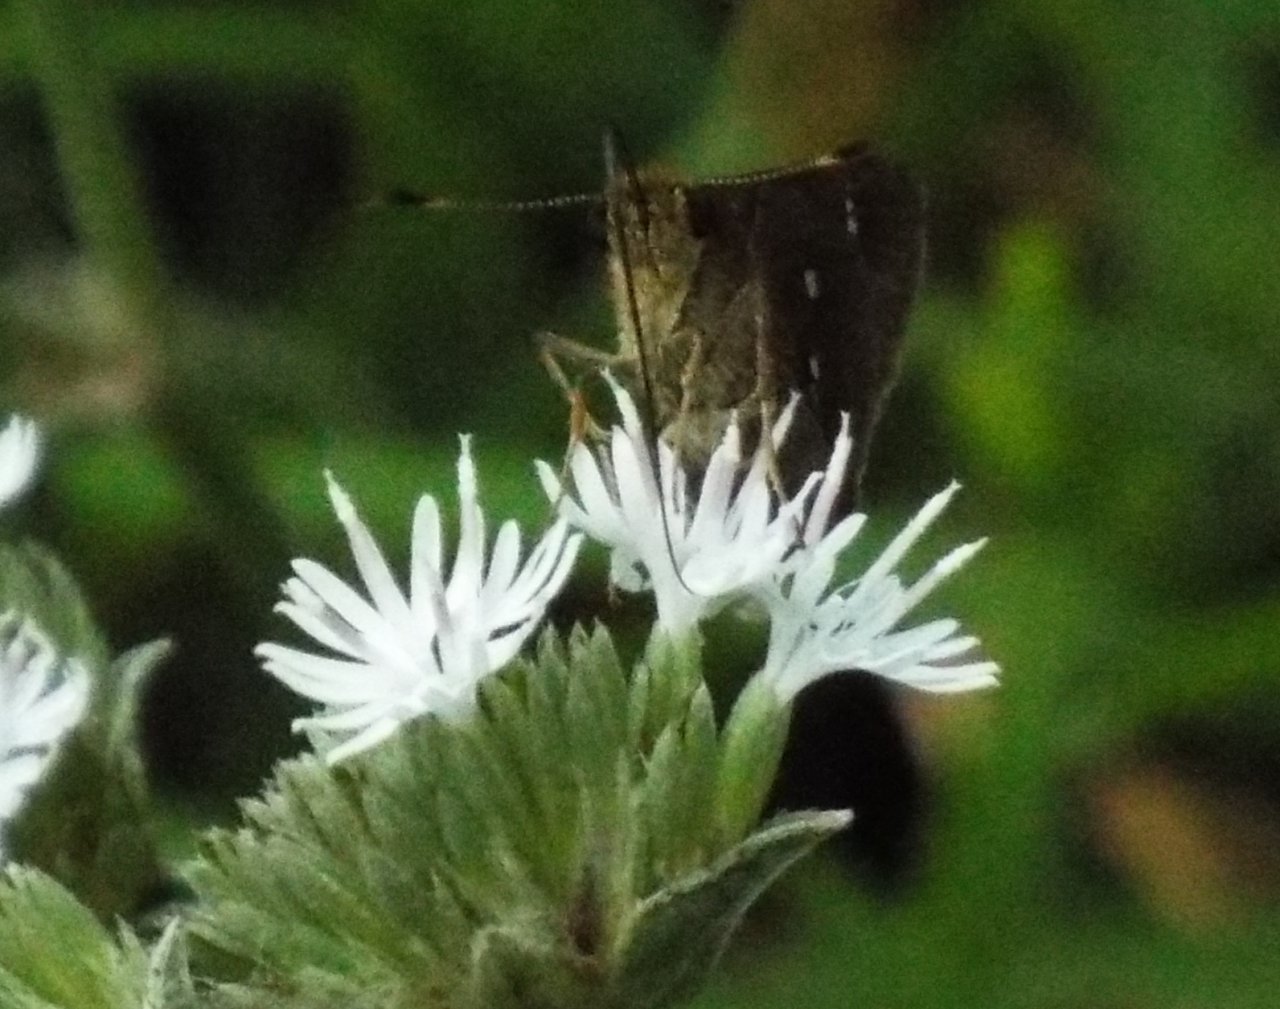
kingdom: Animalia
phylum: Arthropoda
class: Insecta
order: Lepidoptera
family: Hesperiidae
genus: Oligoria
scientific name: Oligoria maculata
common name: Twin-spot Skipper
